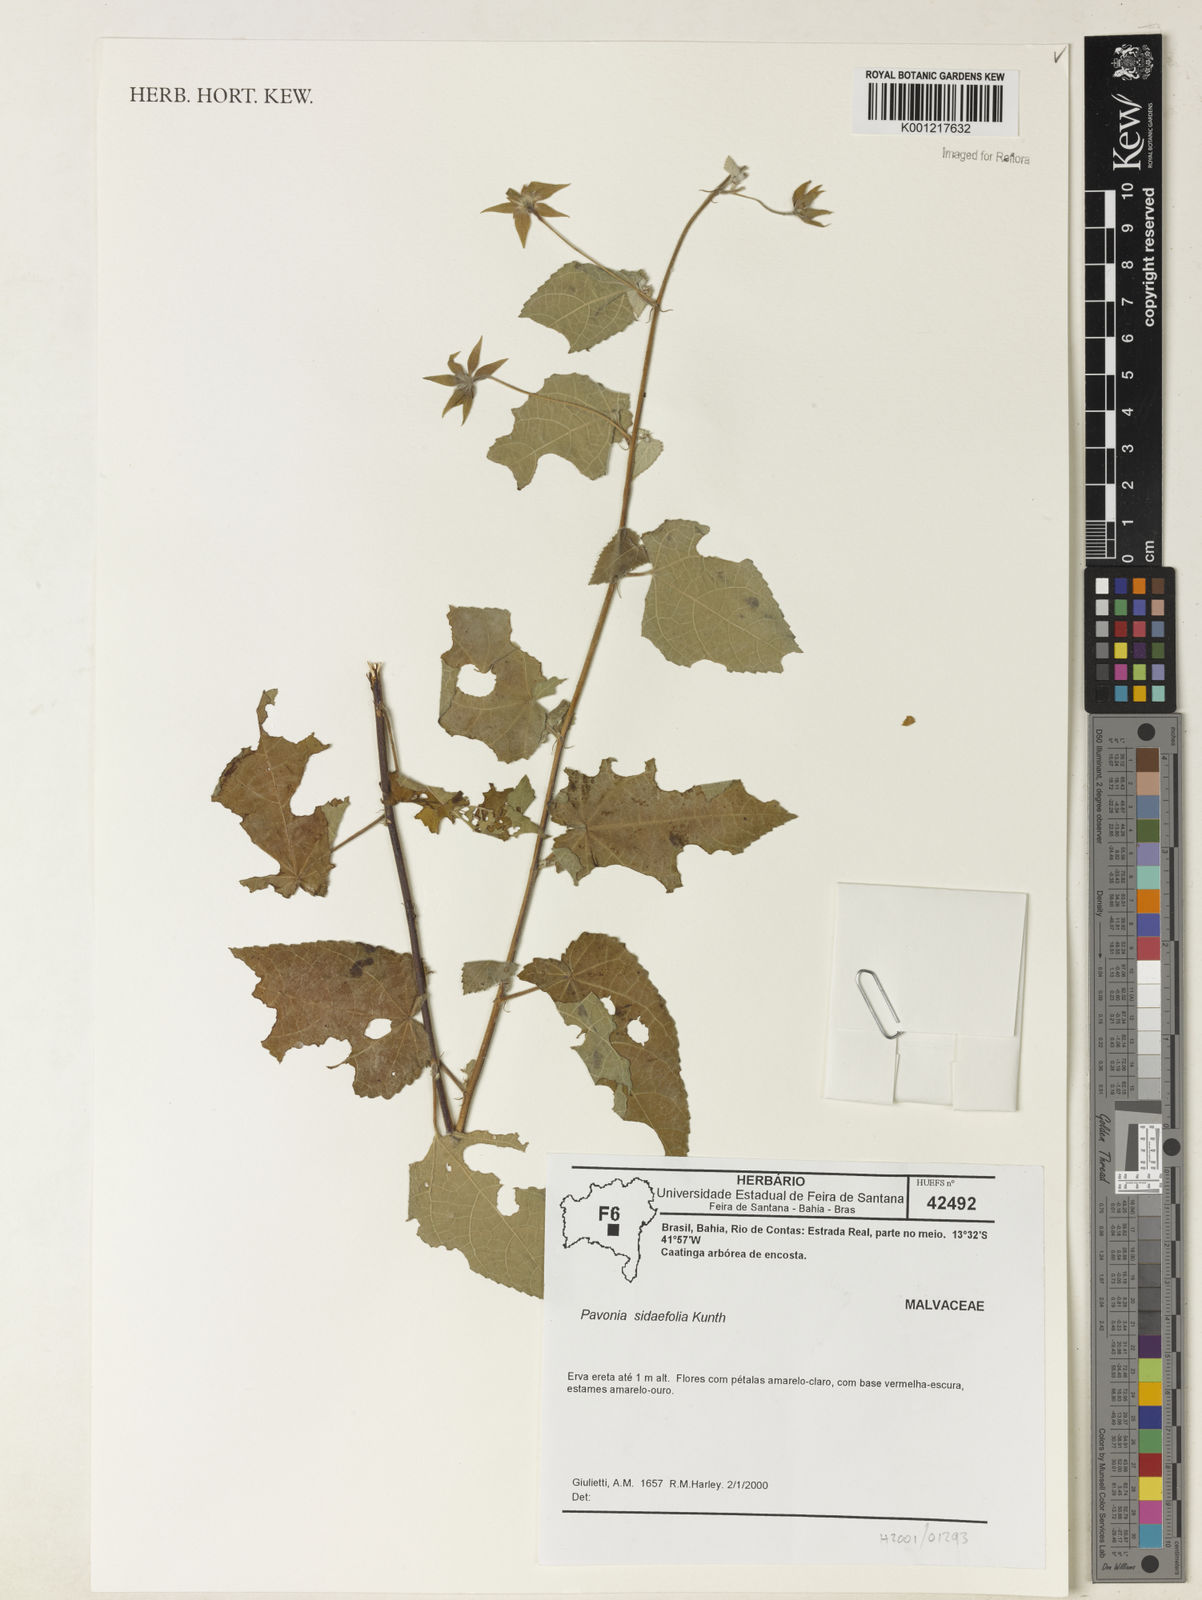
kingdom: Plantae
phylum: Tracheophyta
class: Magnoliopsida
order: Malvales
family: Malvaceae
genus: Pavonia
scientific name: Pavonia sidifolia
